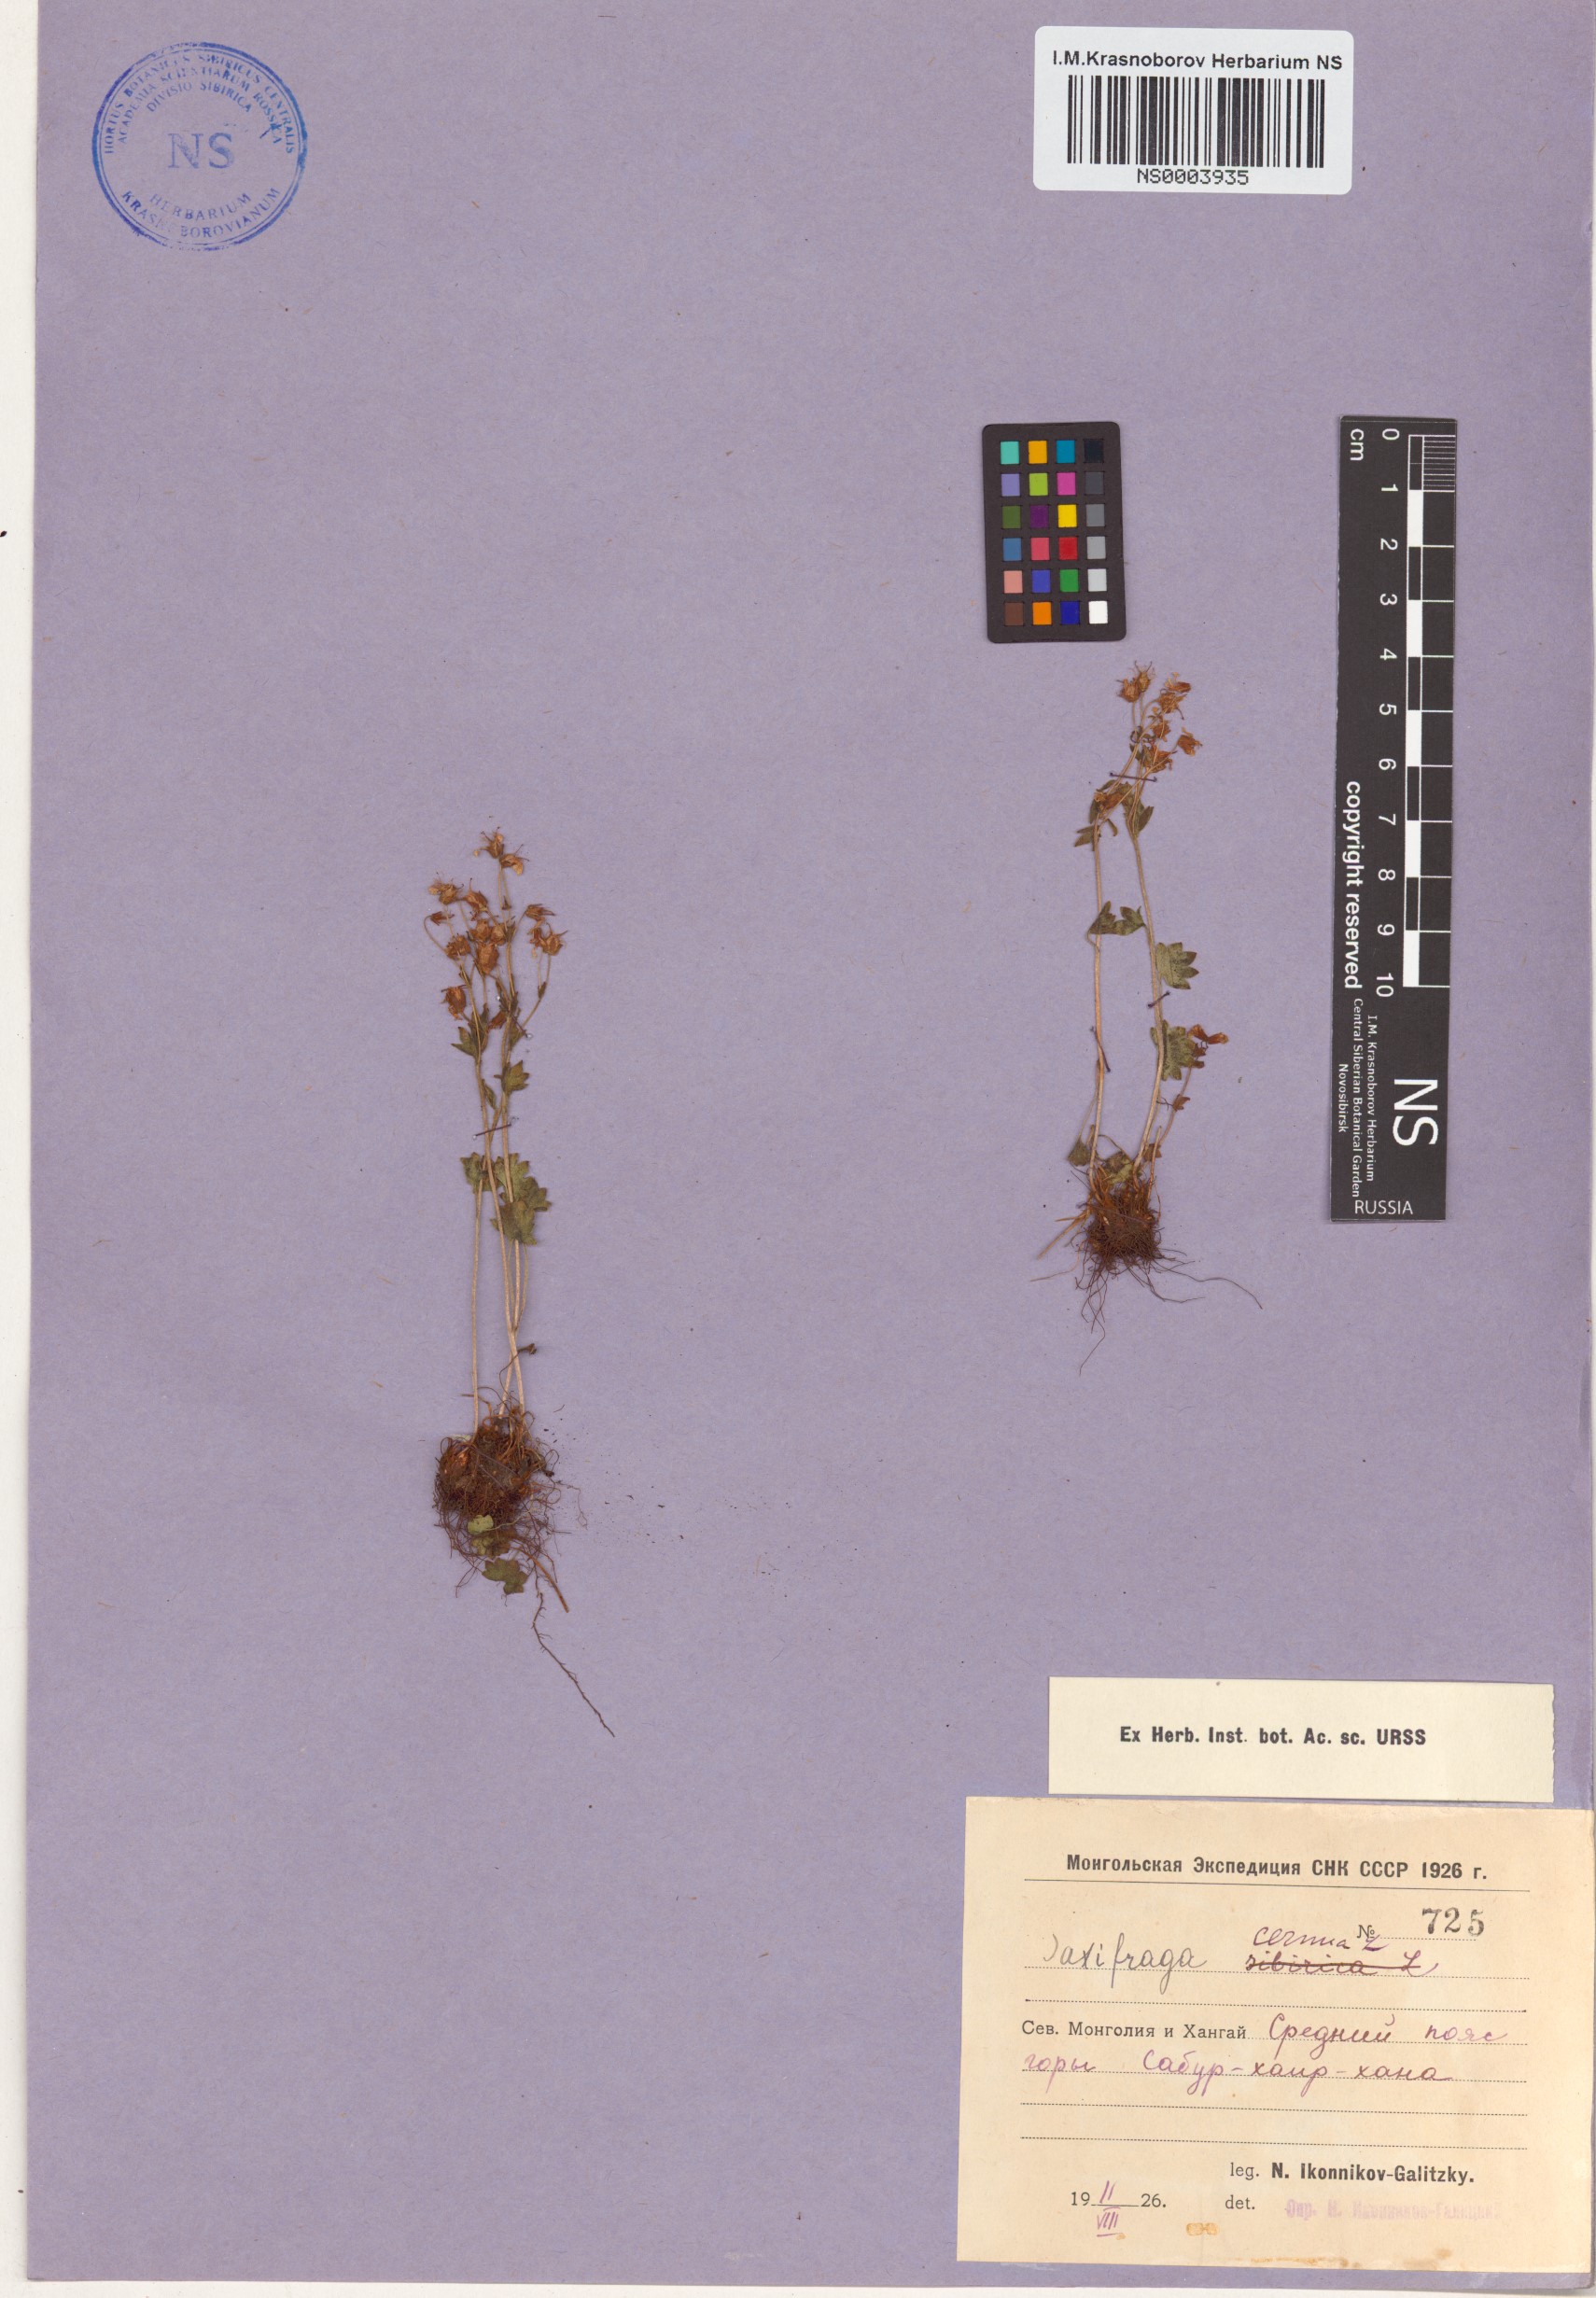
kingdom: Plantae
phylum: Tracheophyta
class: Magnoliopsida
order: Saxifragales
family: Saxifragaceae
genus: Saxifraga
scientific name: Saxifraga cernua
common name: Drooping saxifrage
